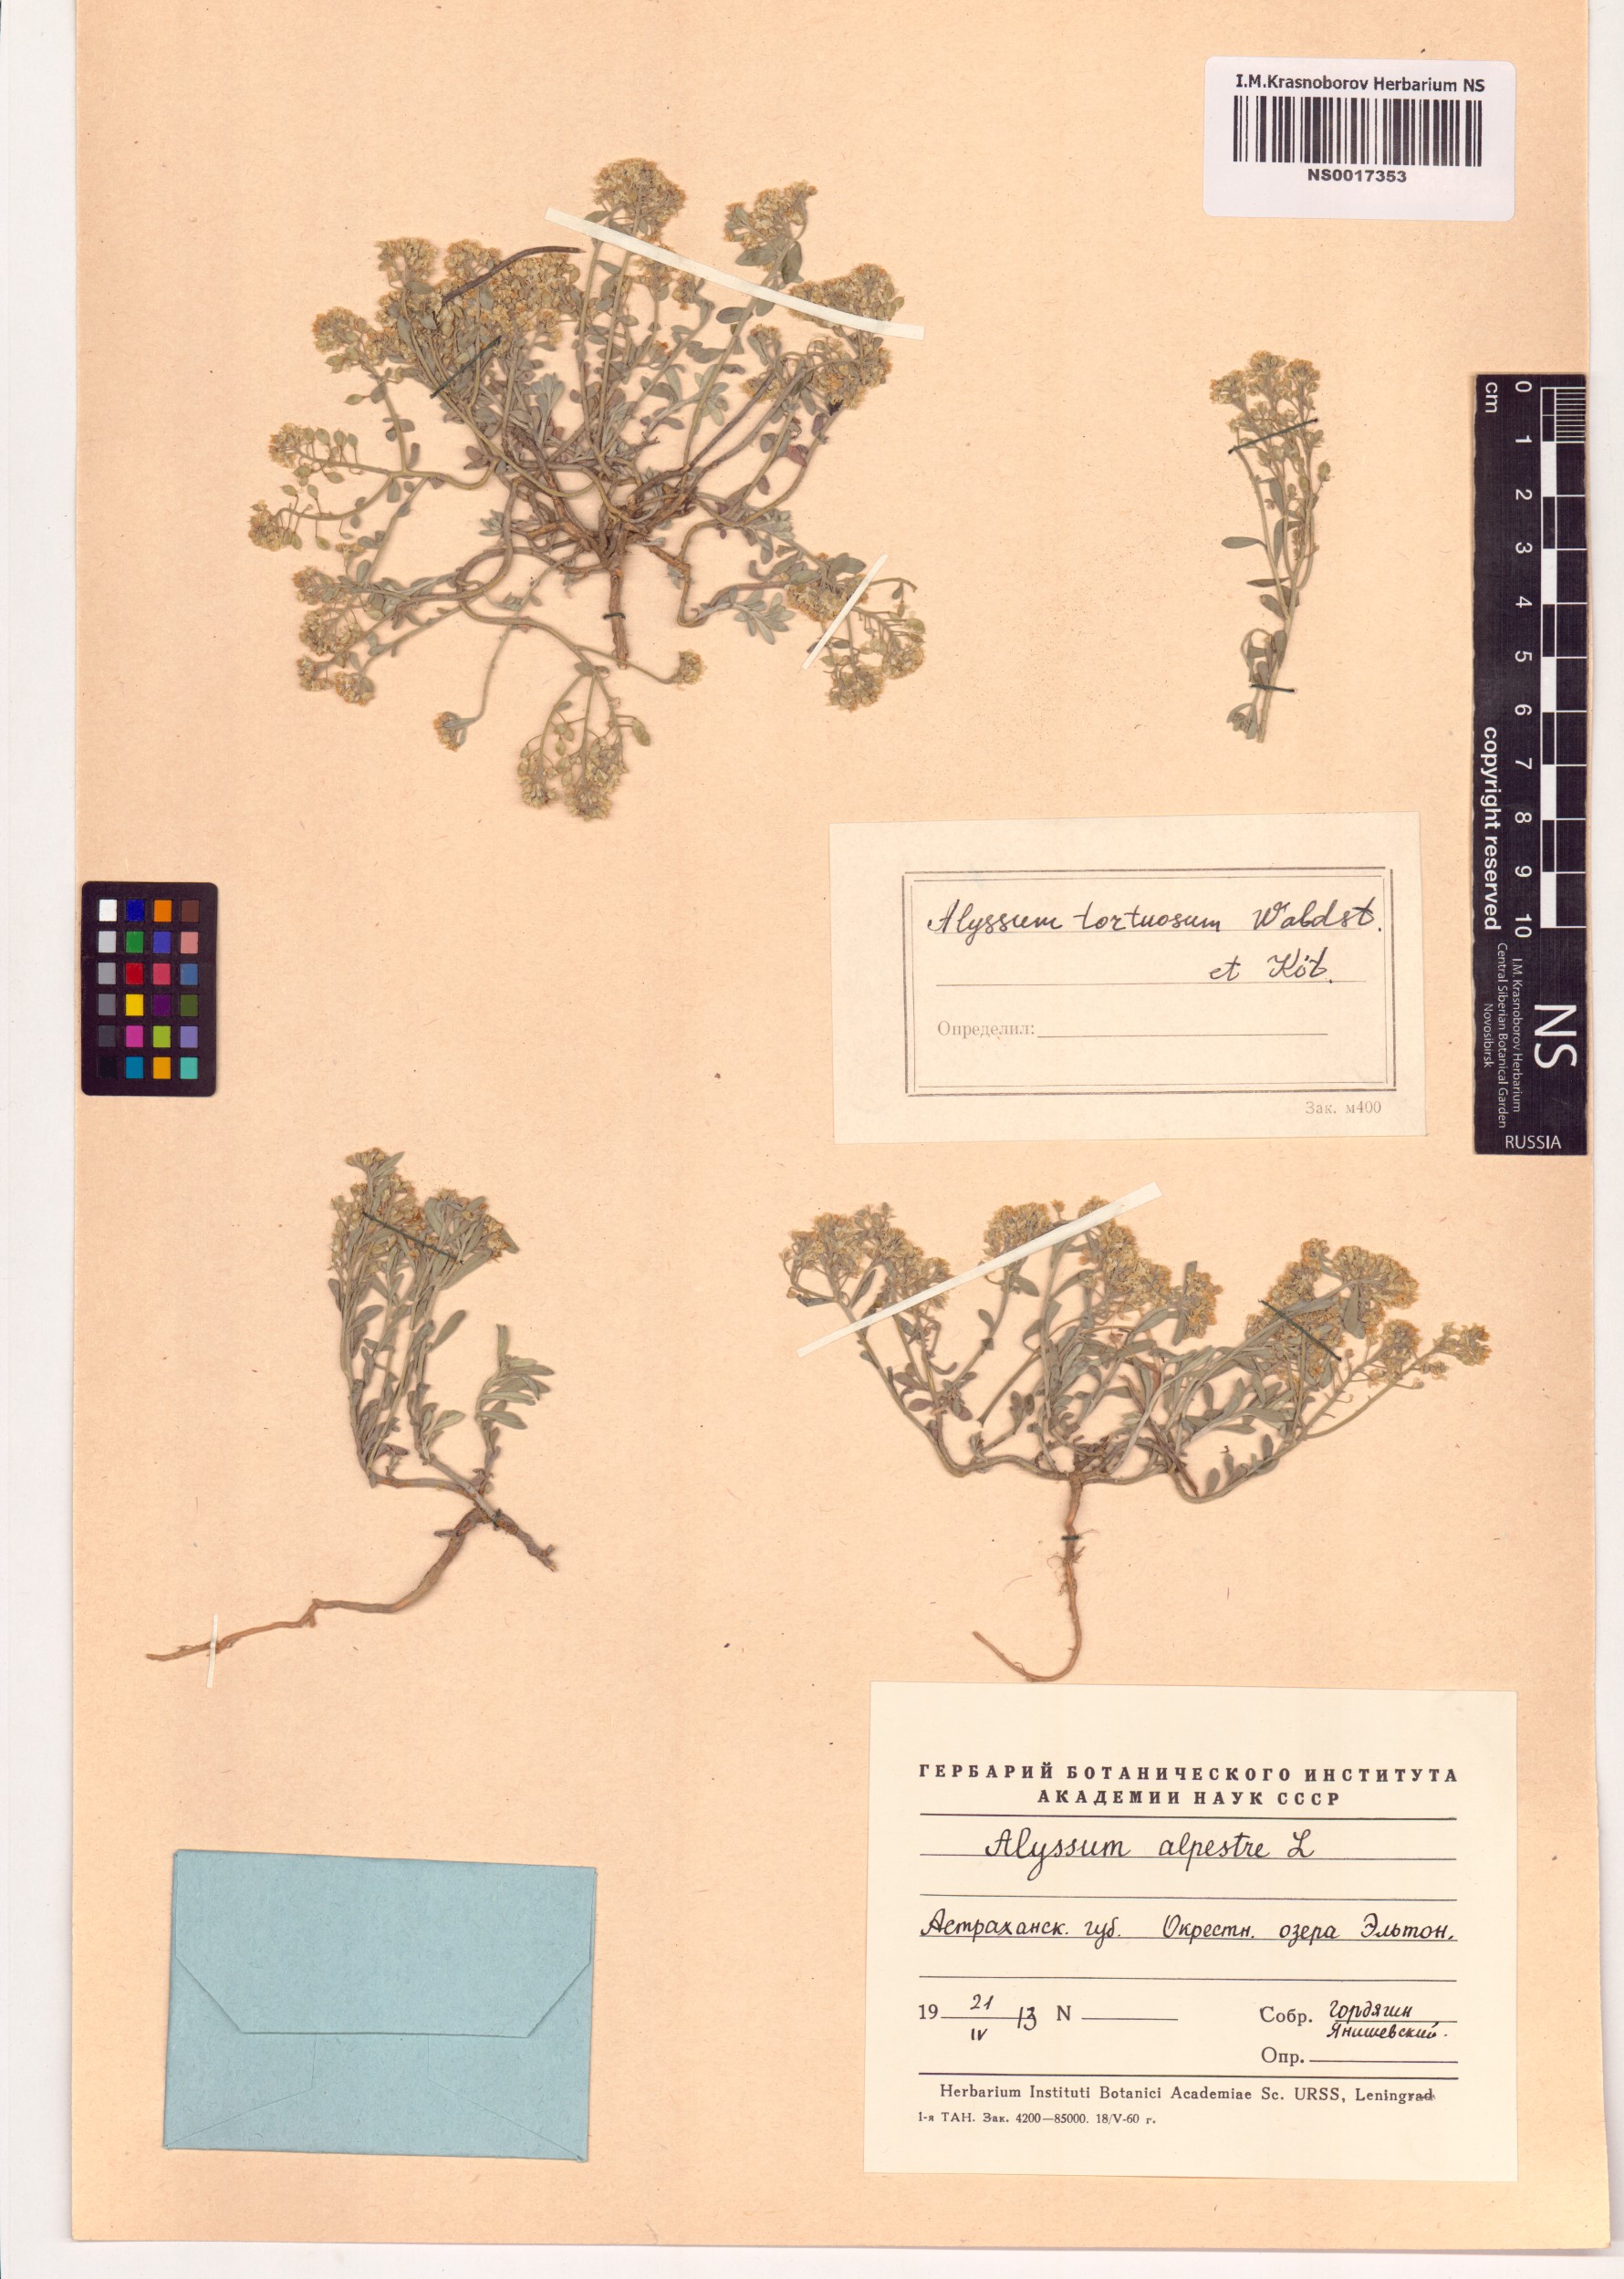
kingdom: Plantae
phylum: Tracheophyta
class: Magnoliopsida
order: Brassicales
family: Brassicaceae
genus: Odontarrhena
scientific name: Odontarrhena tortuosa
